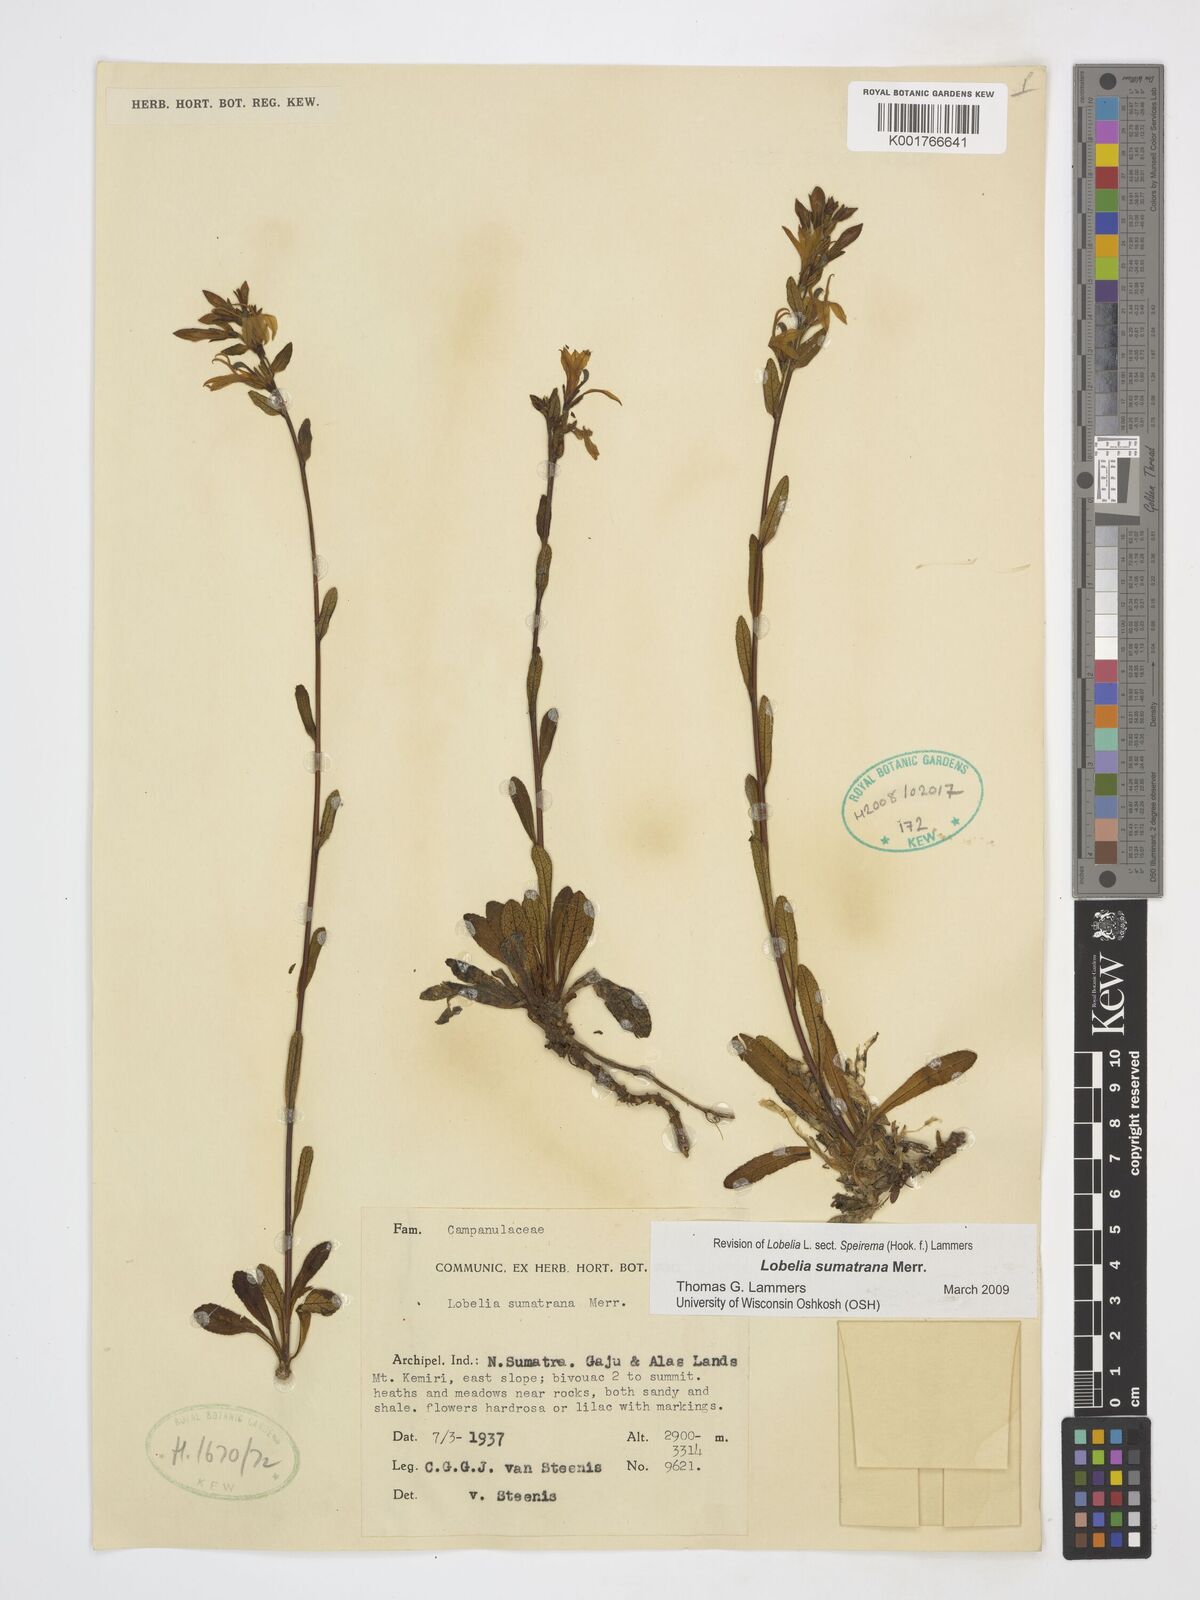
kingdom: Plantae
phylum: Tracheophyta
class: Magnoliopsida
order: Asterales
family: Campanulaceae
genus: Lobelia
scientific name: Lobelia sumatrana
